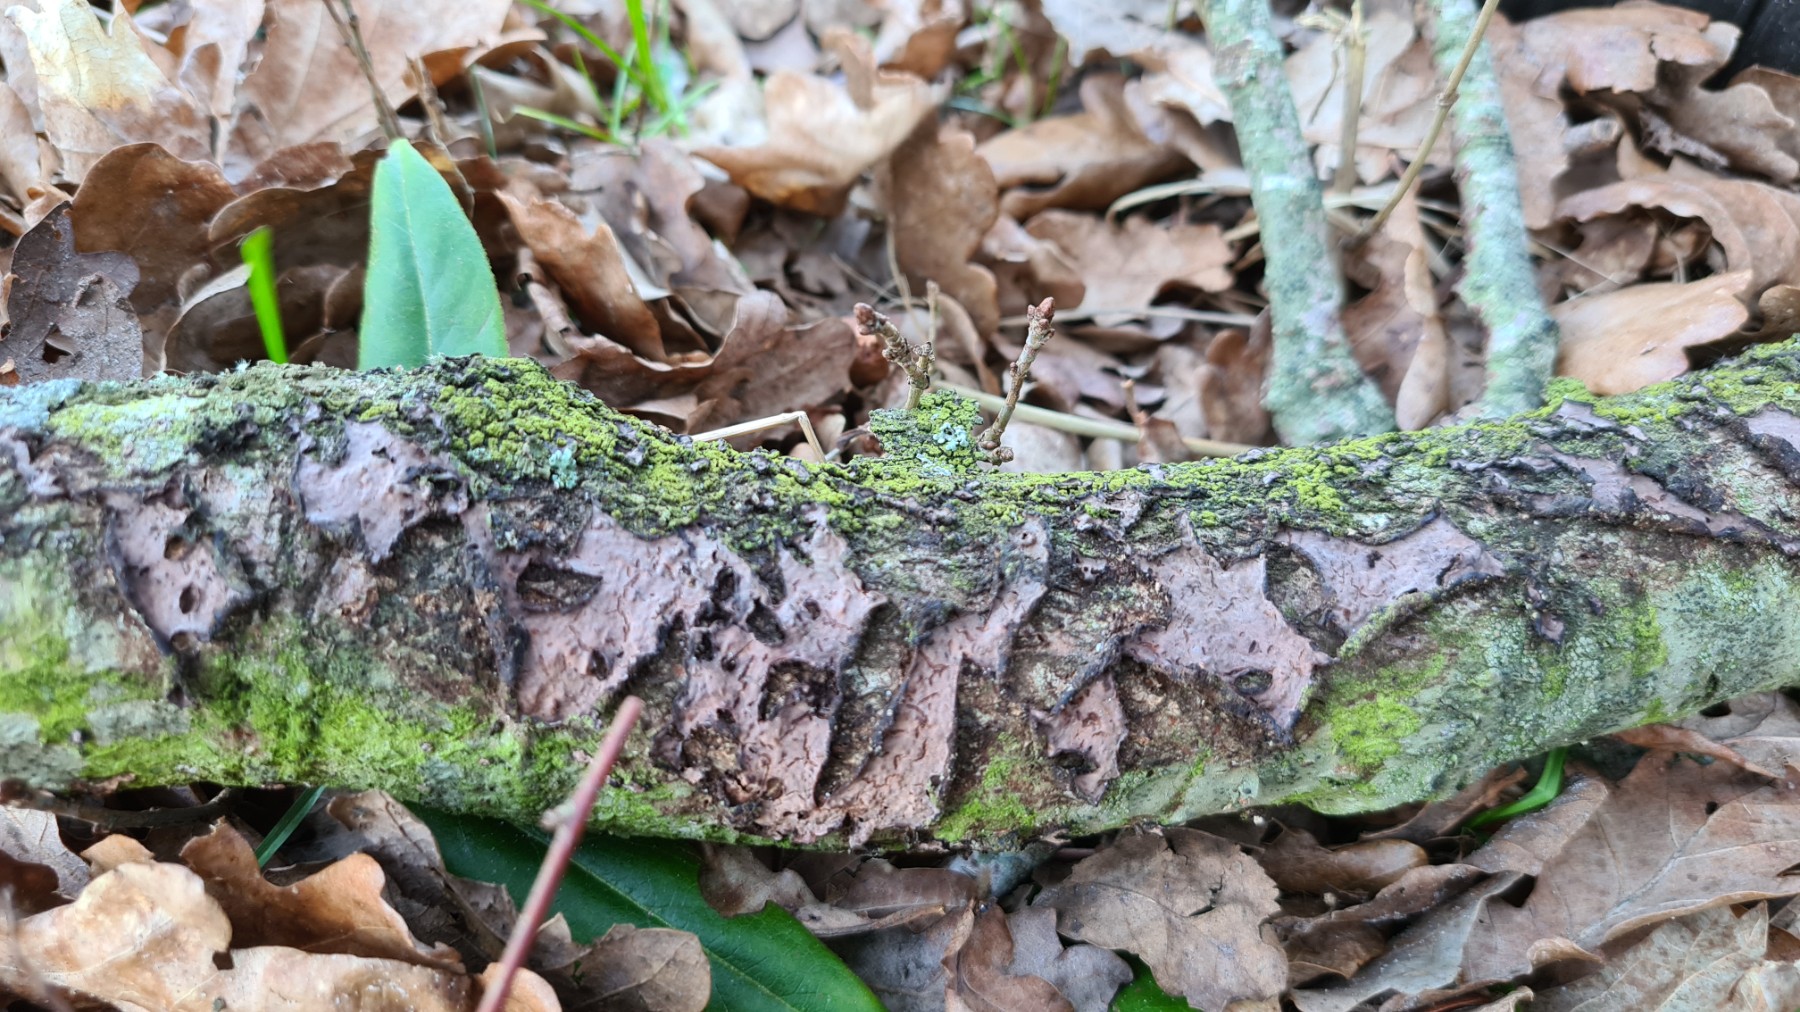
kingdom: Fungi
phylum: Basidiomycota
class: Agaricomycetes
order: Russulales
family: Peniophoraceae
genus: Peniophora
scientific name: Peniophora quercina
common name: ege-voksskind
